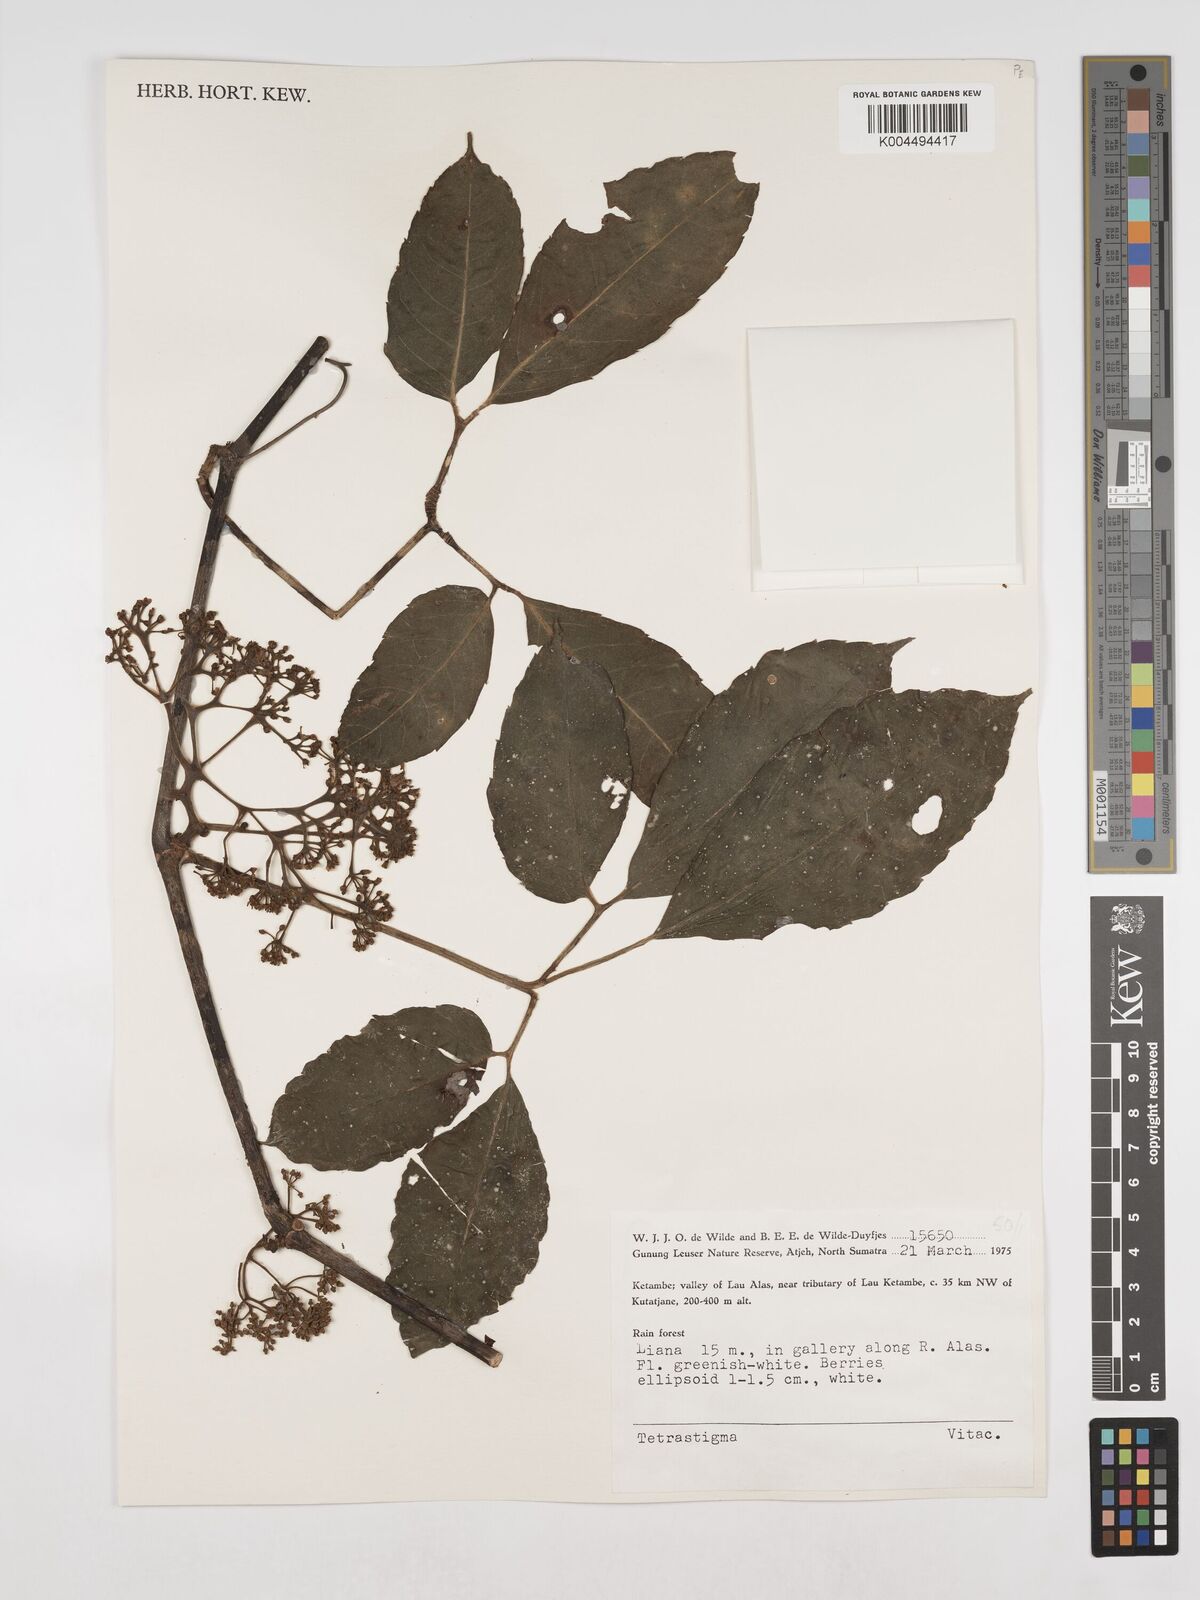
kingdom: Plantae
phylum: Tracheophyta
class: Magnoliopsida
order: Vitales
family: Vitaceae
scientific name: Vitaceae
